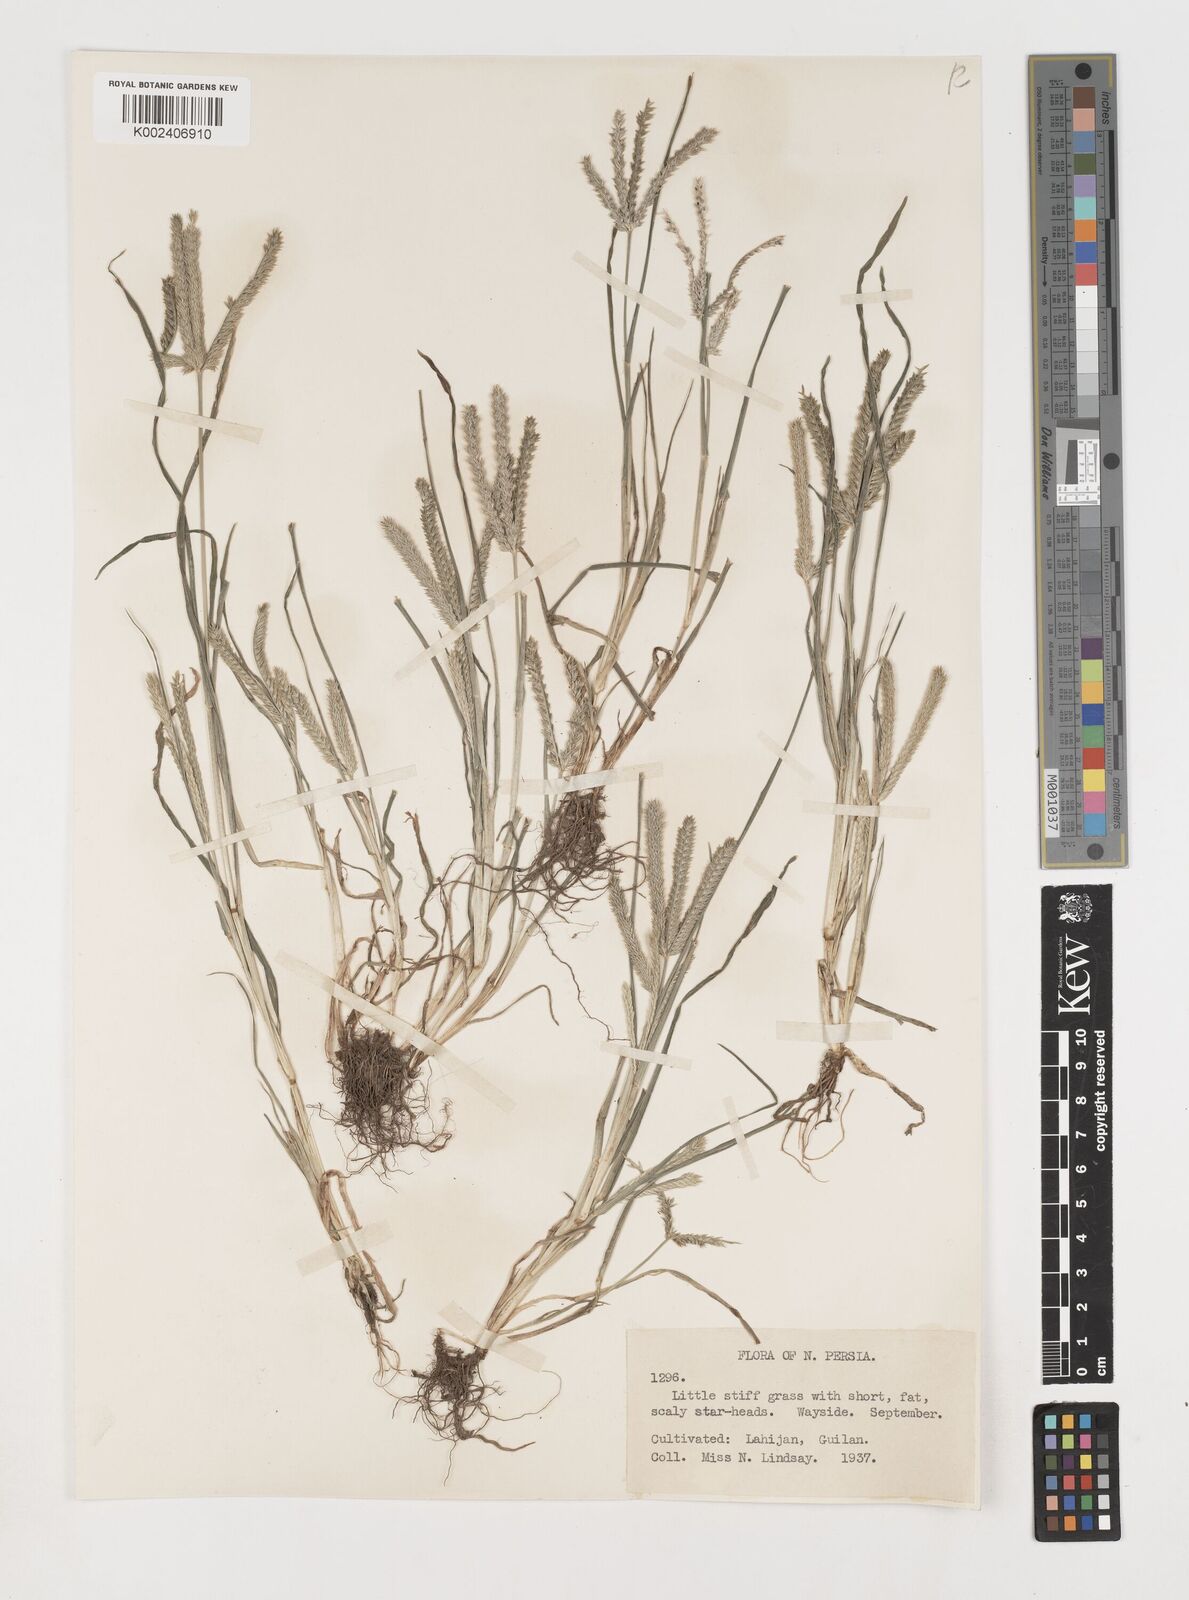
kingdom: Plantae
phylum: Tracheophyta
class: Liliopsida
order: Poales
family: Poaceae
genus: Eleusine
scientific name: Eleusine indica
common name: Yard-grass
